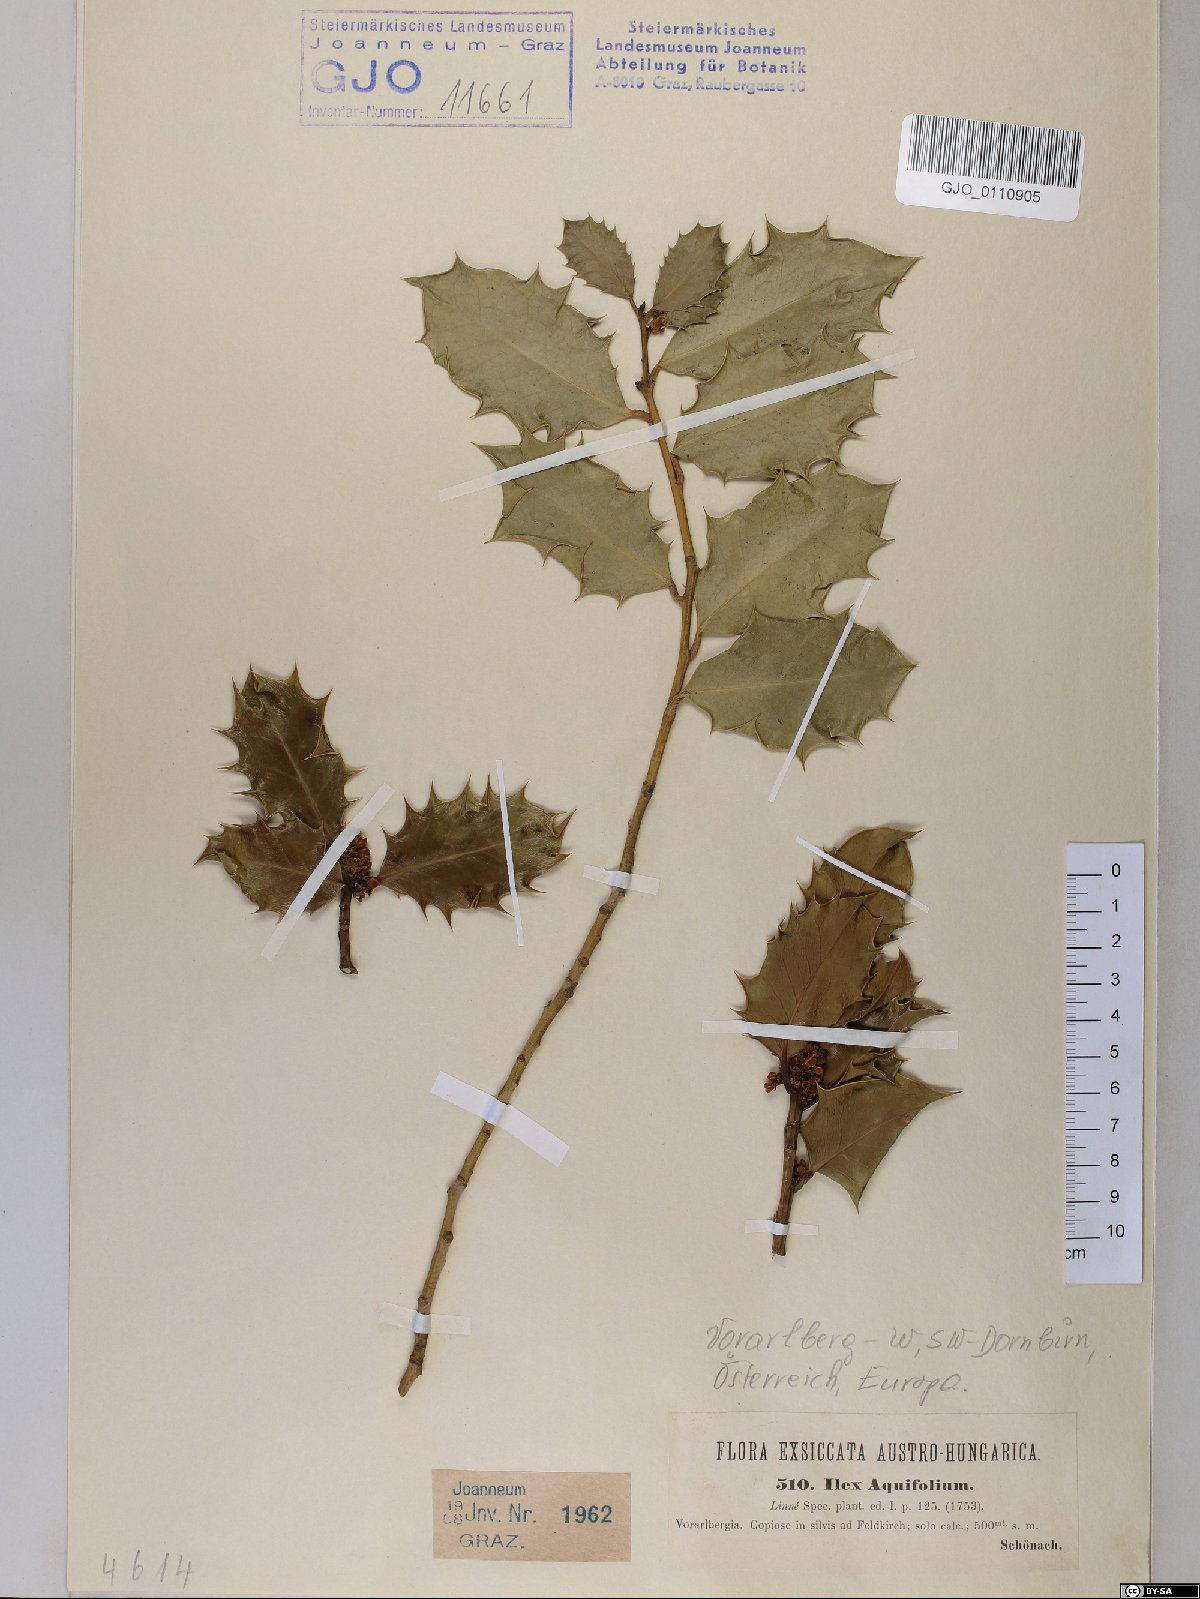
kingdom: Plantae
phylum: Tracheophyta
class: Magnoliopsida
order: Aquifoliales
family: Aquifoliaceae
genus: Ilex
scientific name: Ilex aquifolium
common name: English holly
